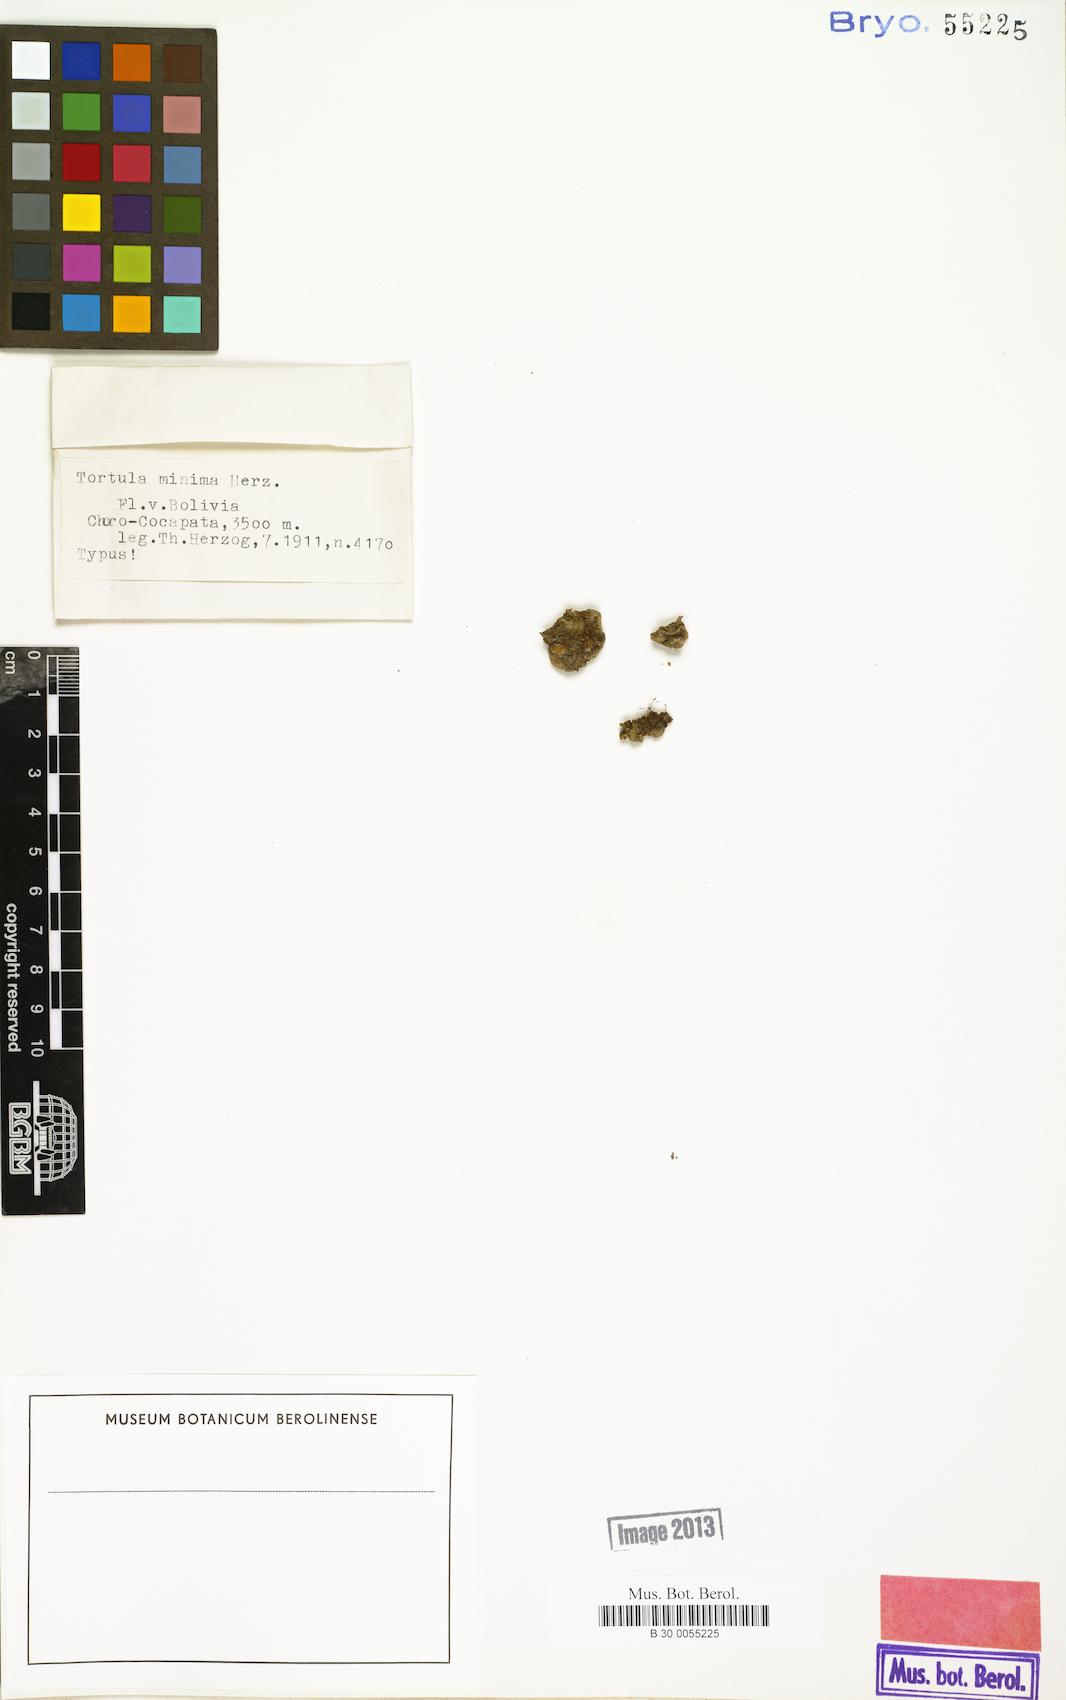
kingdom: Plantae
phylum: Bryophyta
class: Bryopsida
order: Pottiales
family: Pottiaceae
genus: Tortula
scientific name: Tortula atrovirens
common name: Rib-leaf moss
